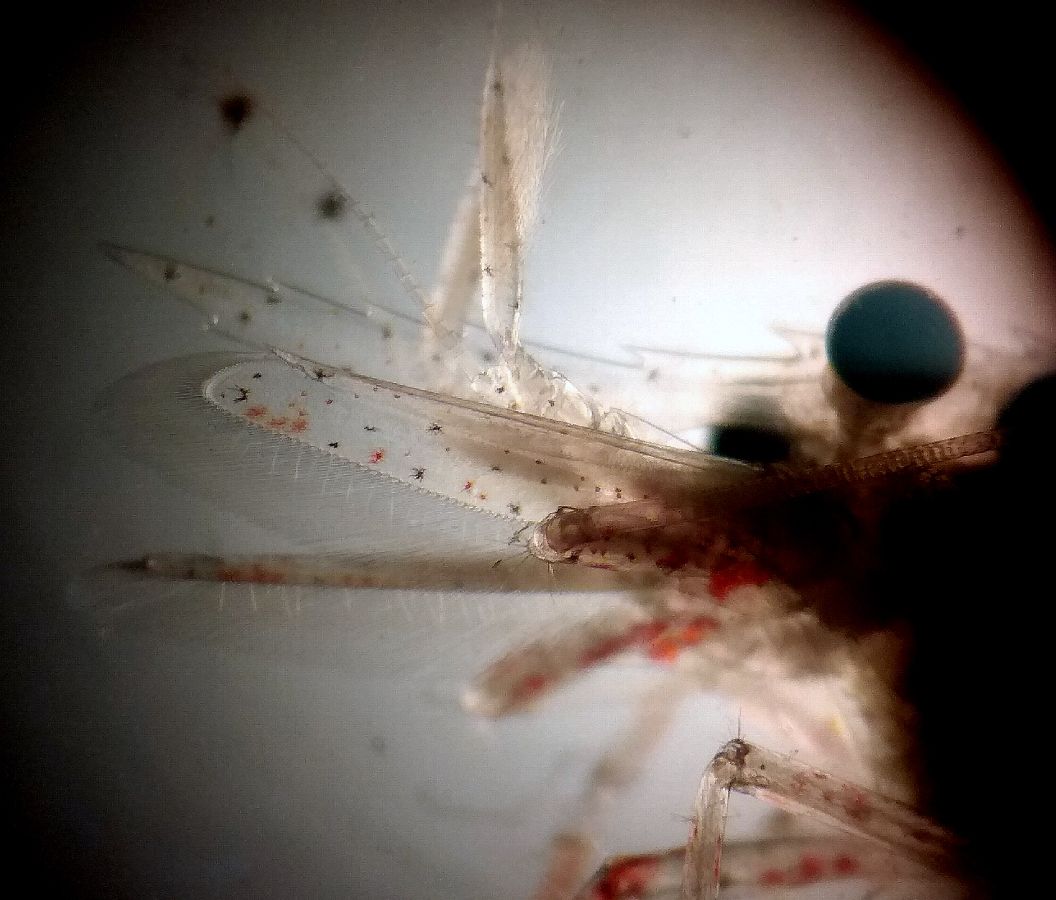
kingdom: Animalia
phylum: Arthropoda
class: Malacostraca
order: Decapoda
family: Thoridae
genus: Eualus
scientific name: Eualus gaimardii
